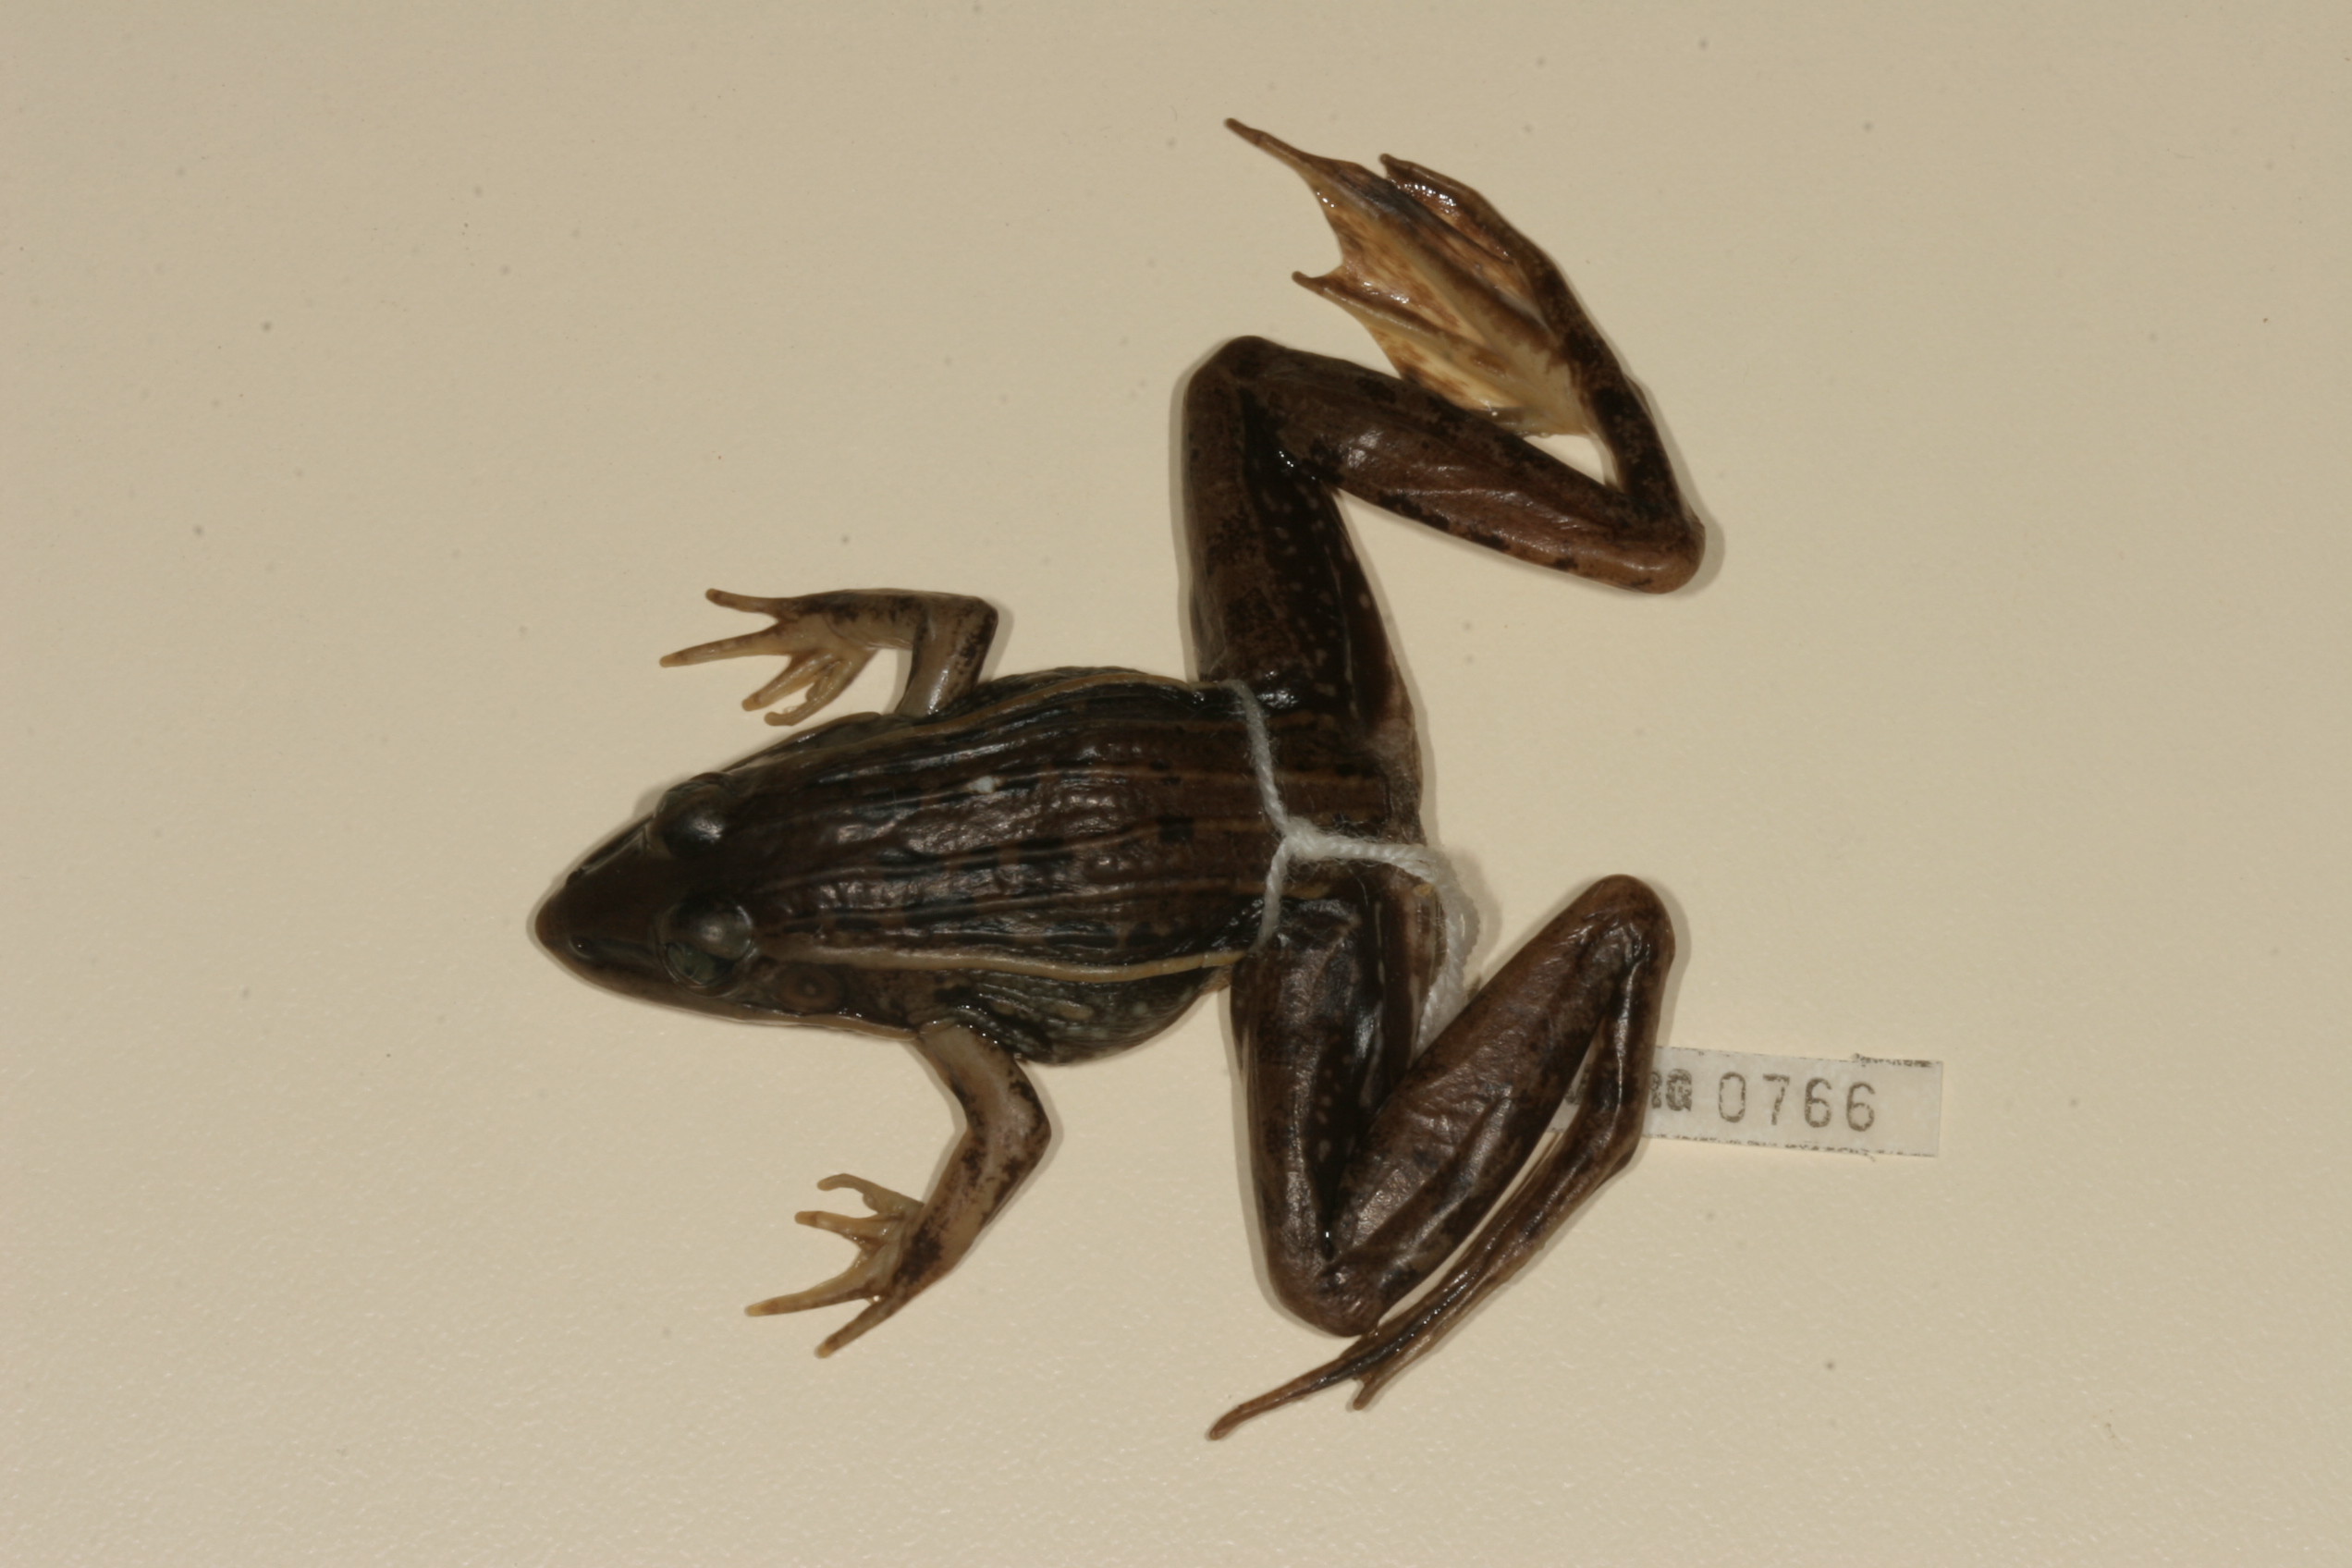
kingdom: Animalia
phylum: Chordata
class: Amphibia
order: Anura
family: Ptychadenidae
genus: Ptychadena
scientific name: Ptychadena subpunctata
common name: Bocage's grassland frog
